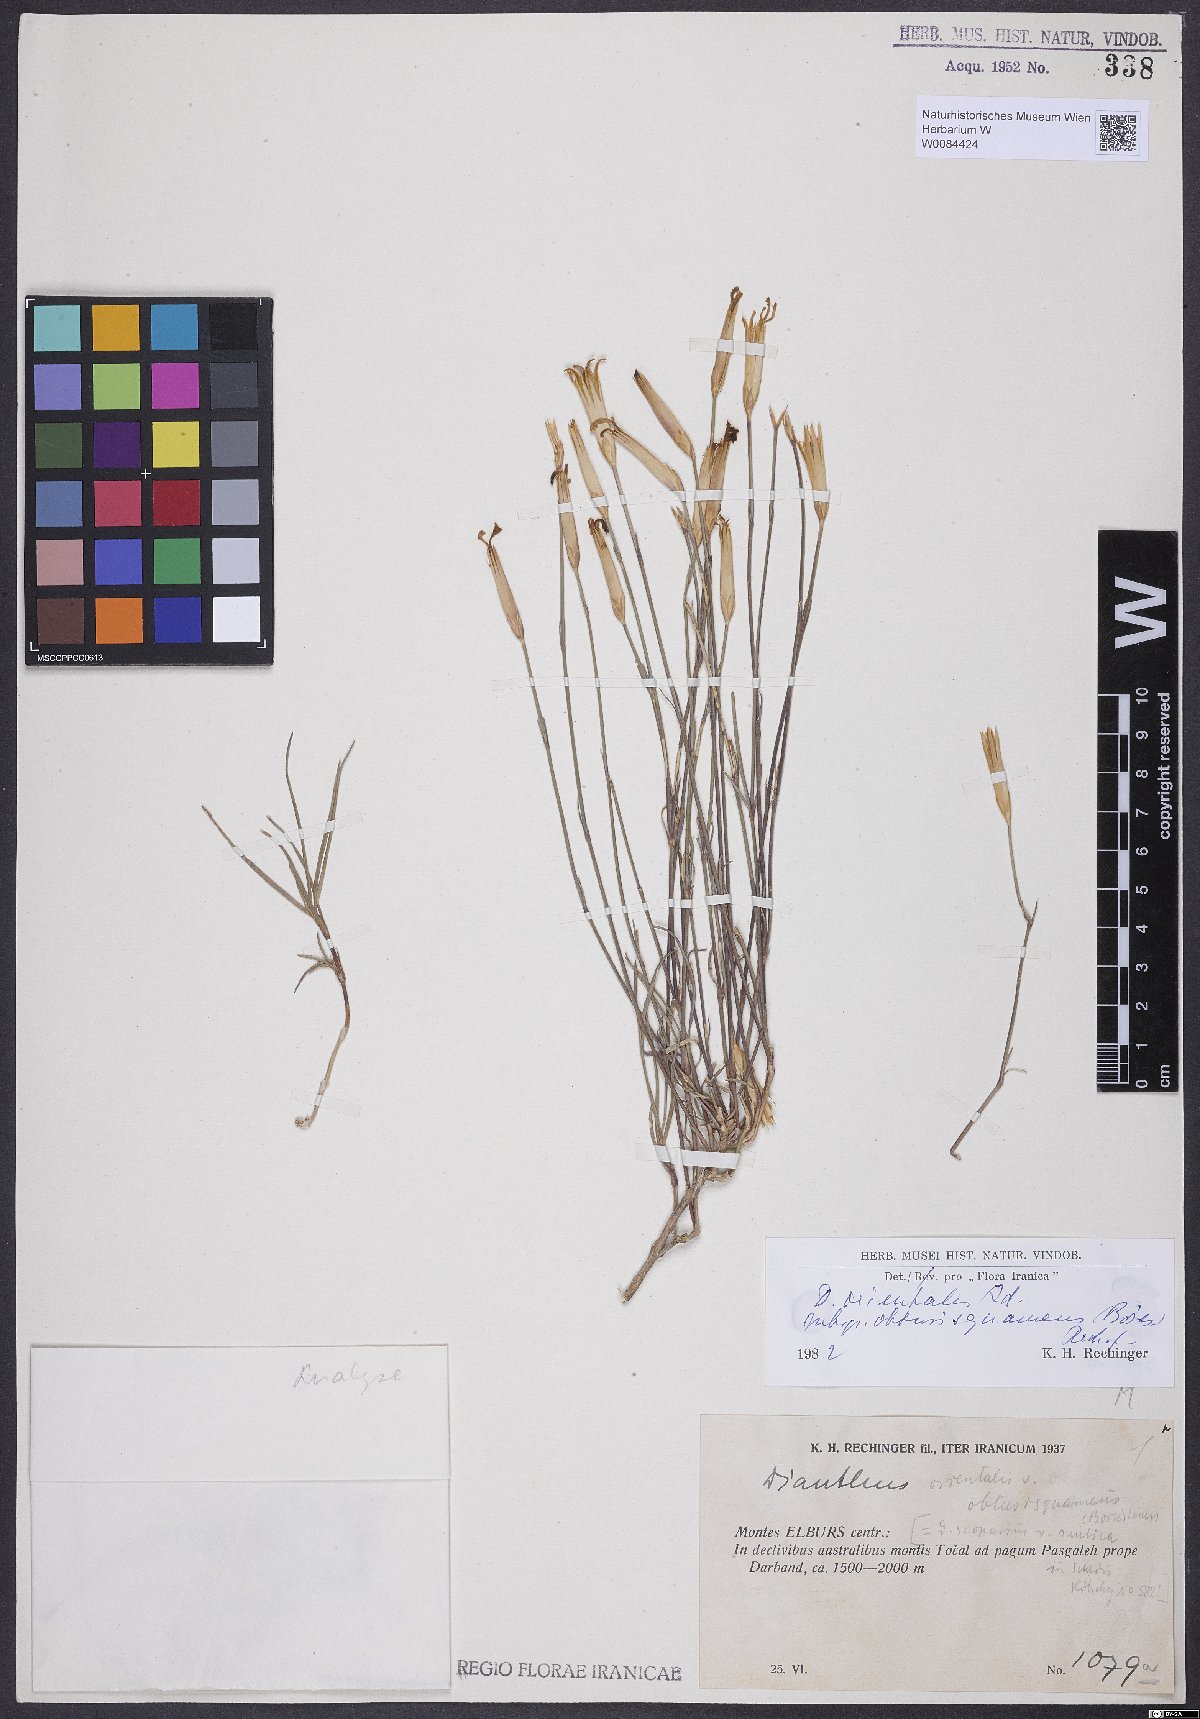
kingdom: Plantae
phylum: Tracheophyta
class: Magnoliopsida
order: Caryophyllales
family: Caryophyllaceae
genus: Dianthus
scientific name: Dianthus orientalis
